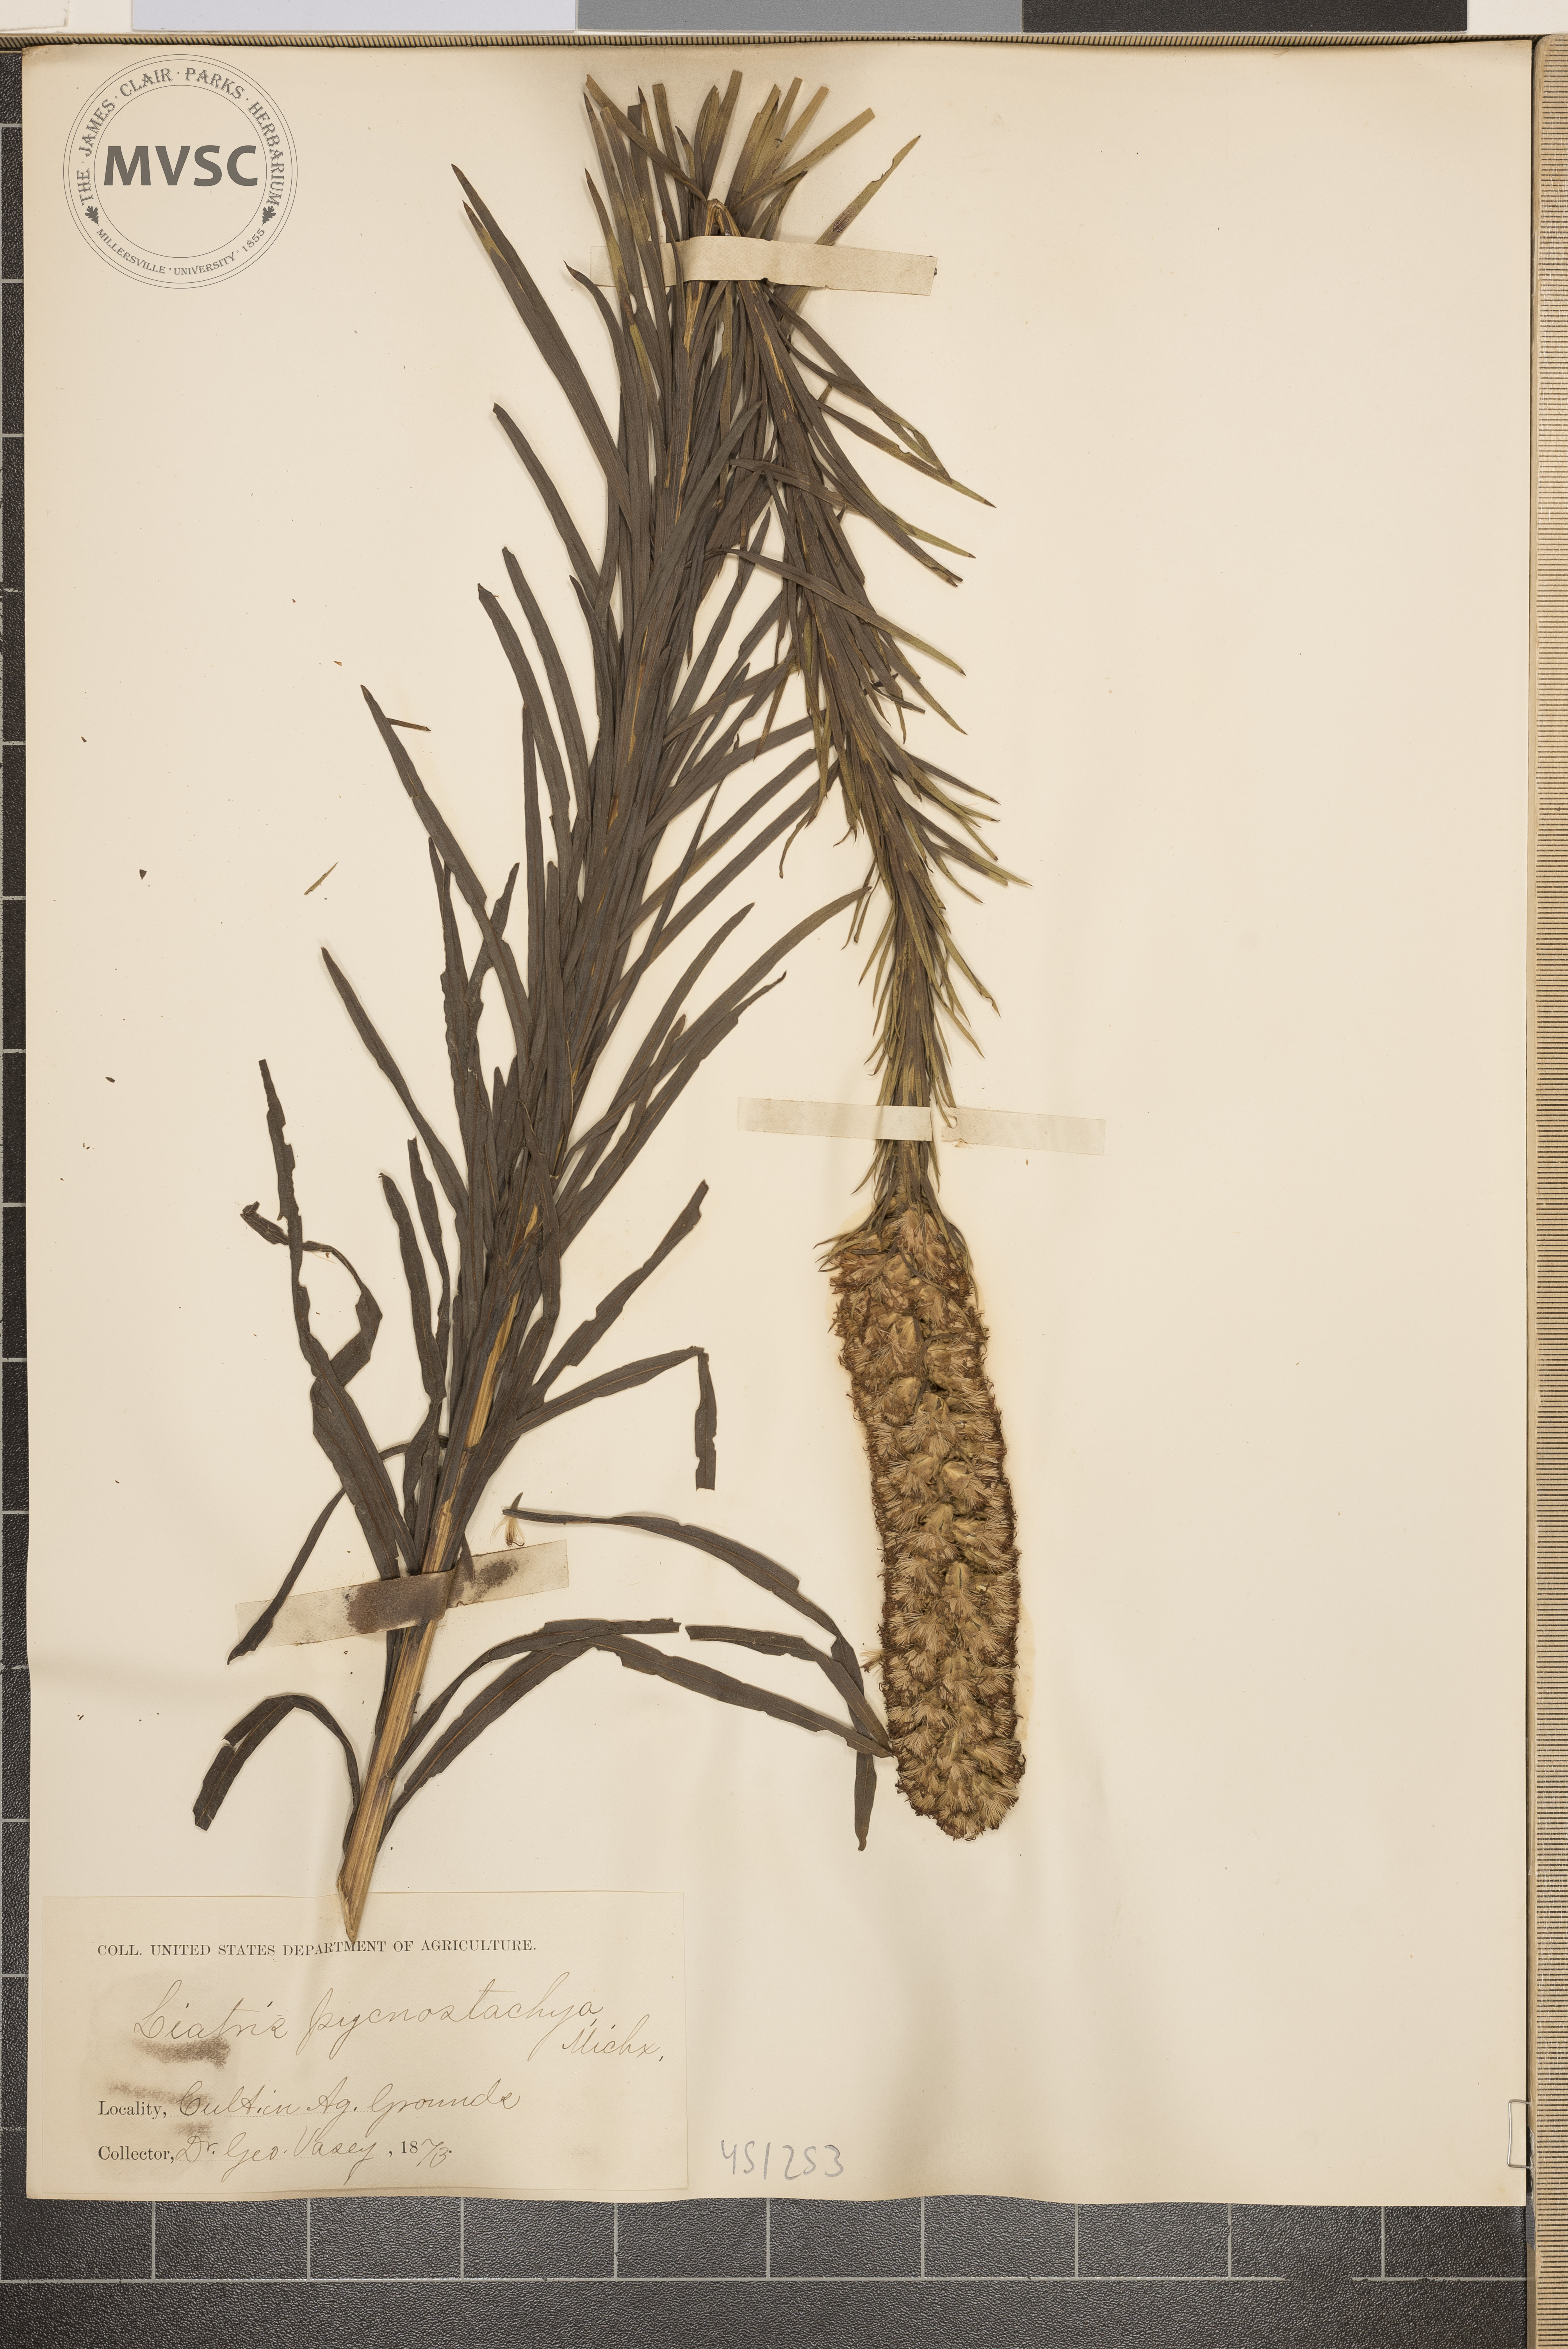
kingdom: Plantae
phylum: Tracheophyta
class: Magnoliopsida
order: Asterales
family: Asteraceae
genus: Liatris
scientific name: Liatris pycnostachya
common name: Cattail gayfeather
